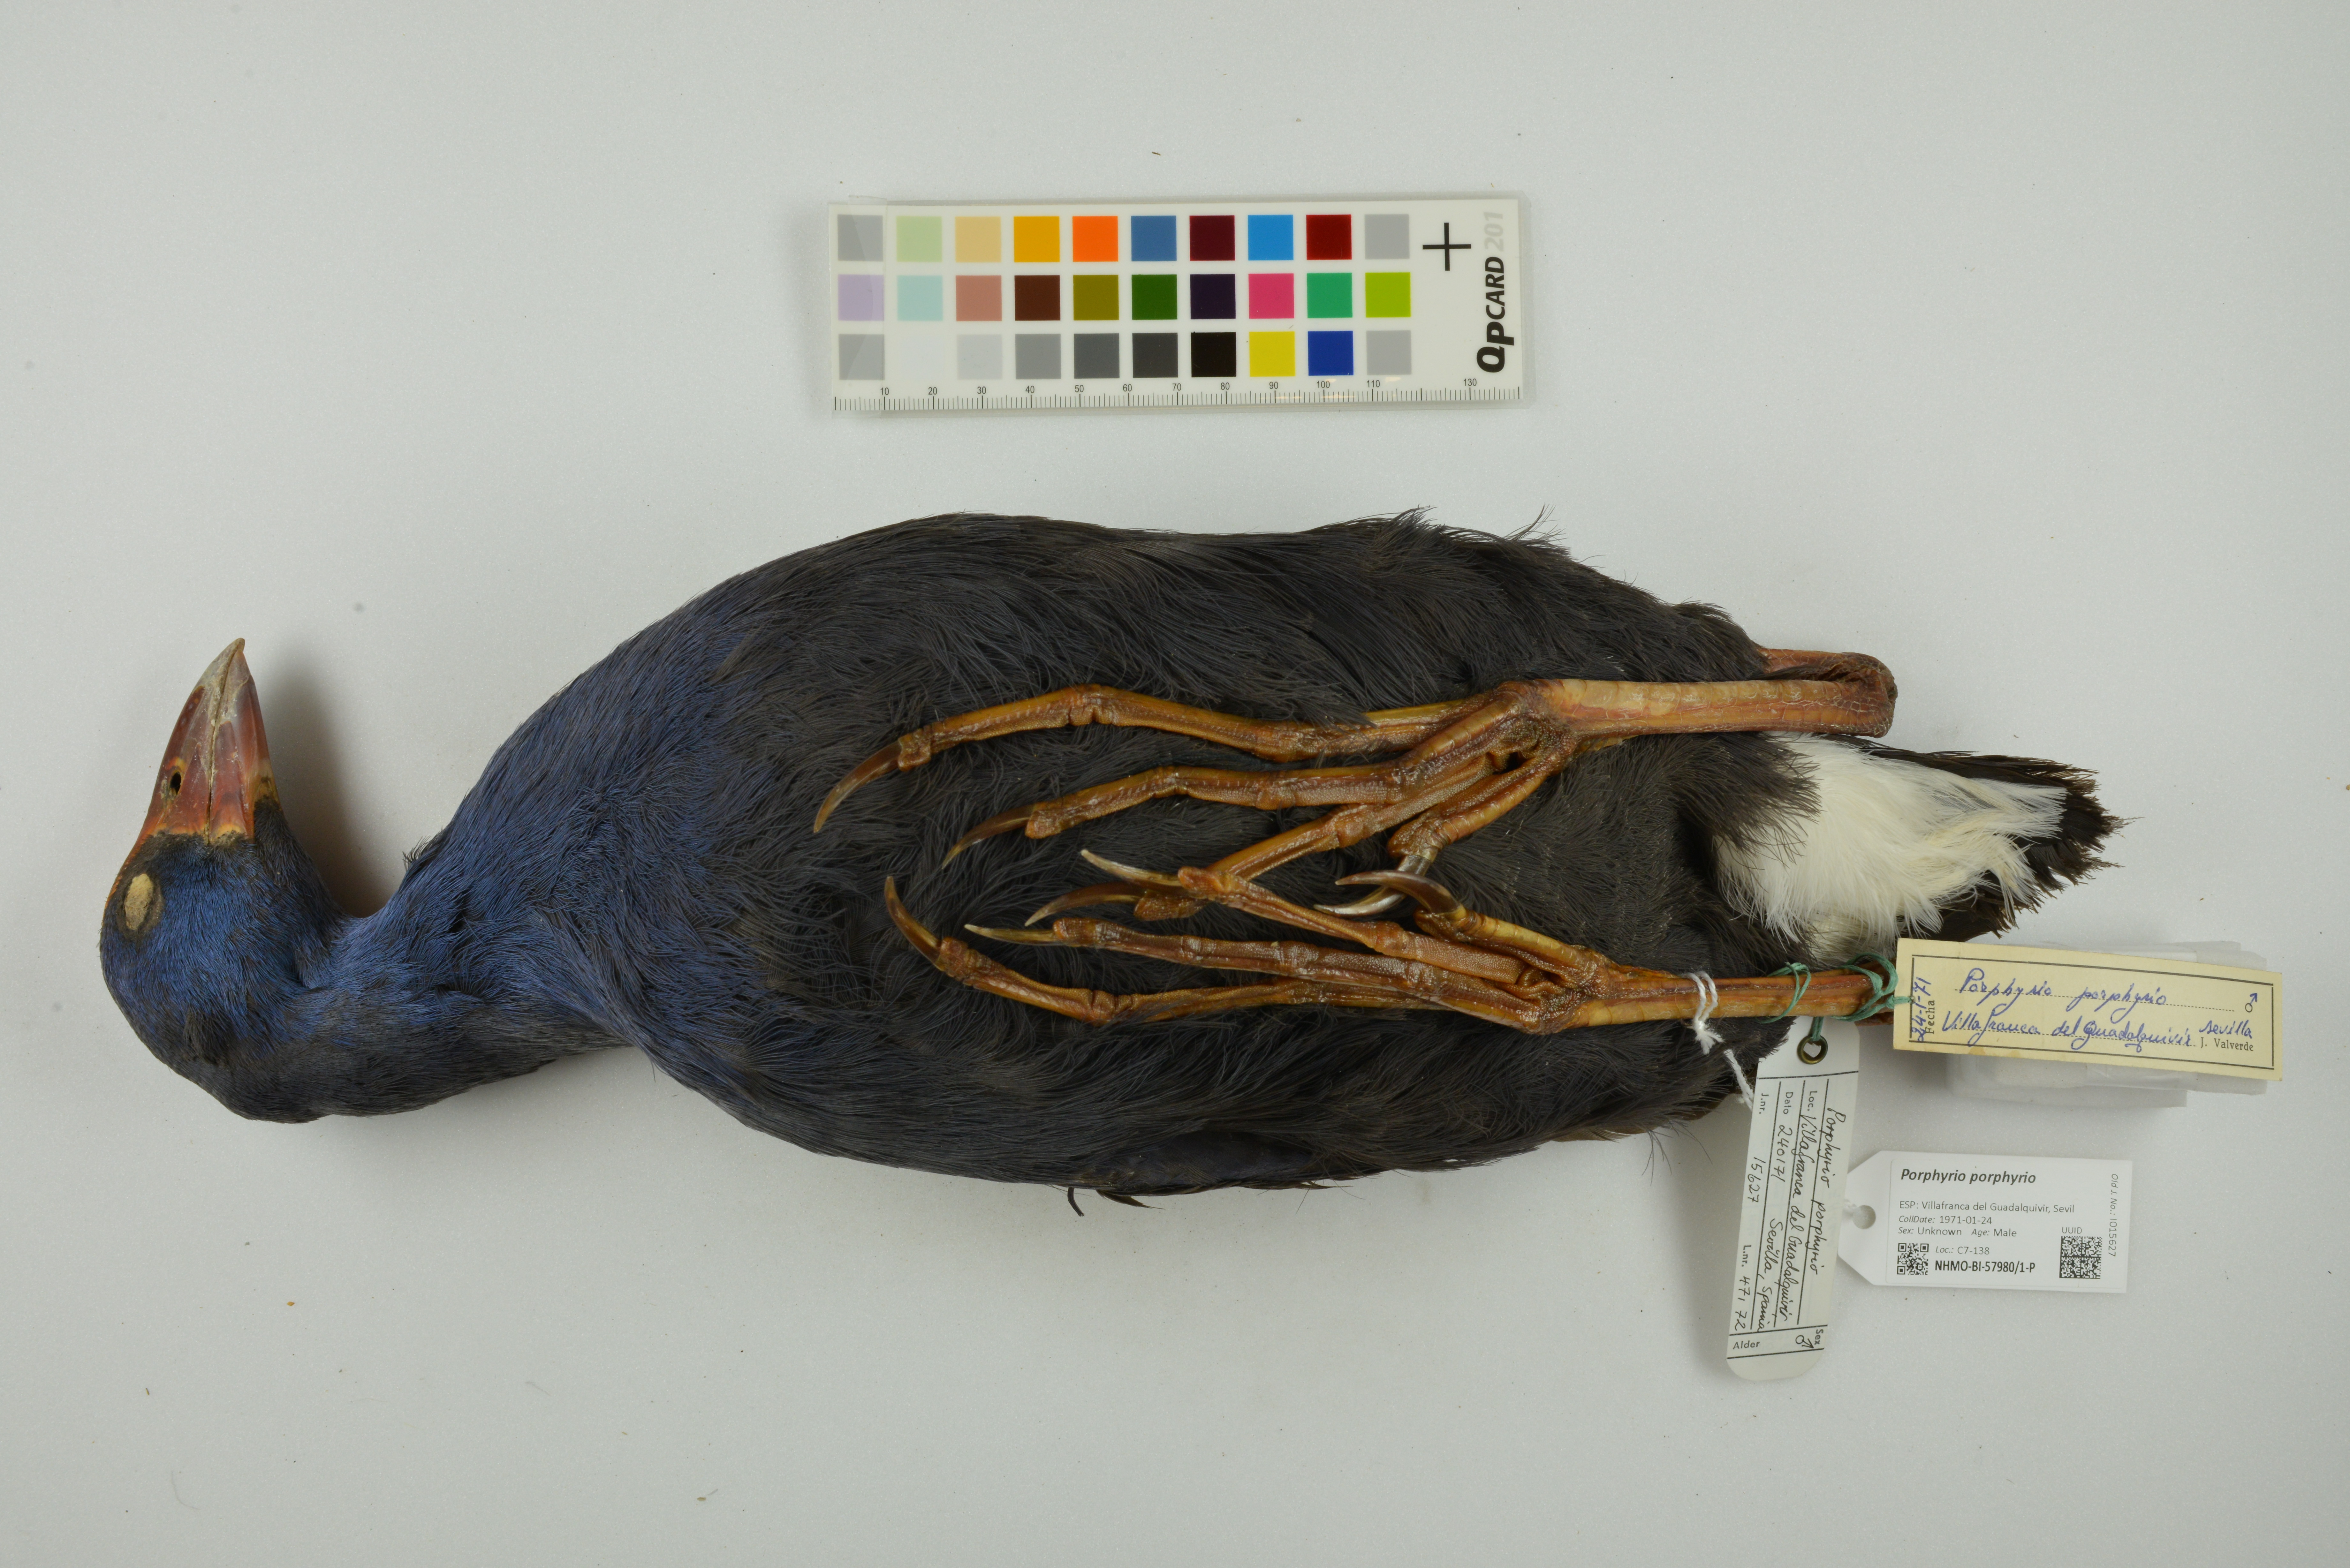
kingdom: Animalia
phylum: Chordata
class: Aves
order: Gruiformes
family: Rallidae
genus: Porphyrio
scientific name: Porphyrio porphyrio
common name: Purple swamphen
